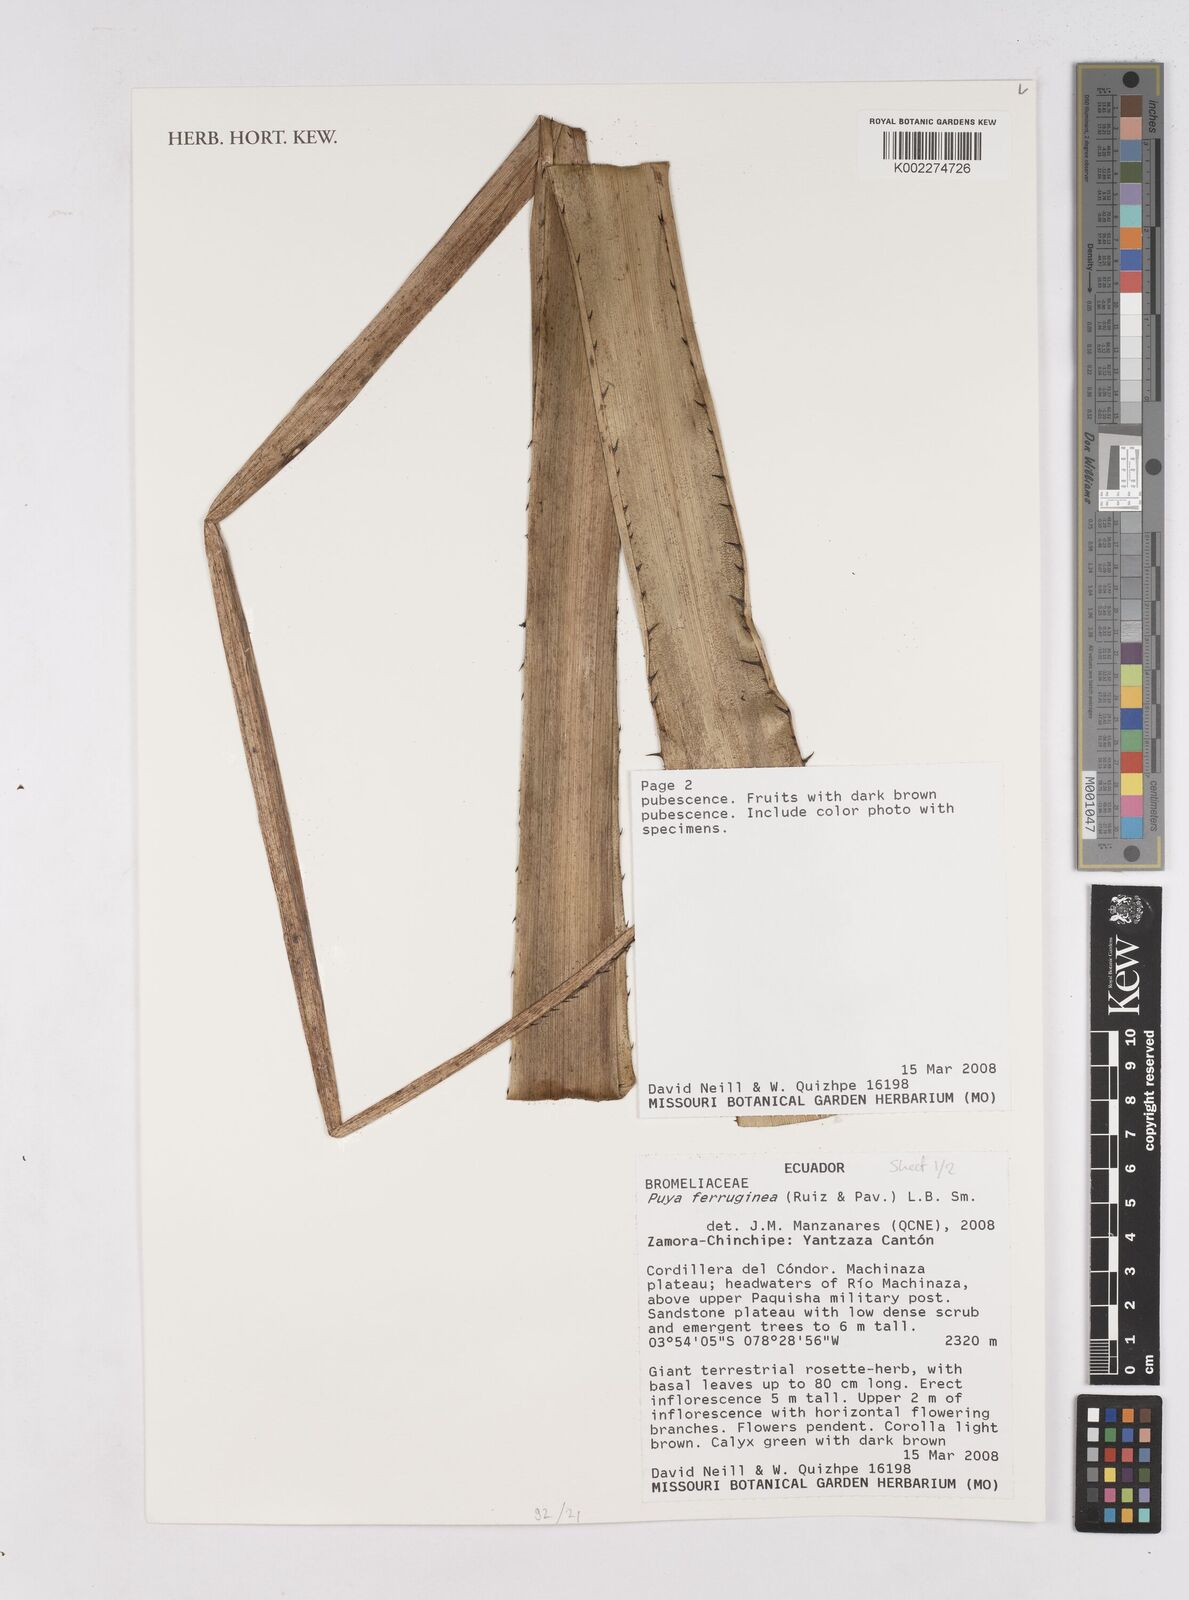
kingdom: Plantae
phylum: Tracheophyta
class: Liliopsida
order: Poales
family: Bromeliaceae
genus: Puya
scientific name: Puya ferruginea
